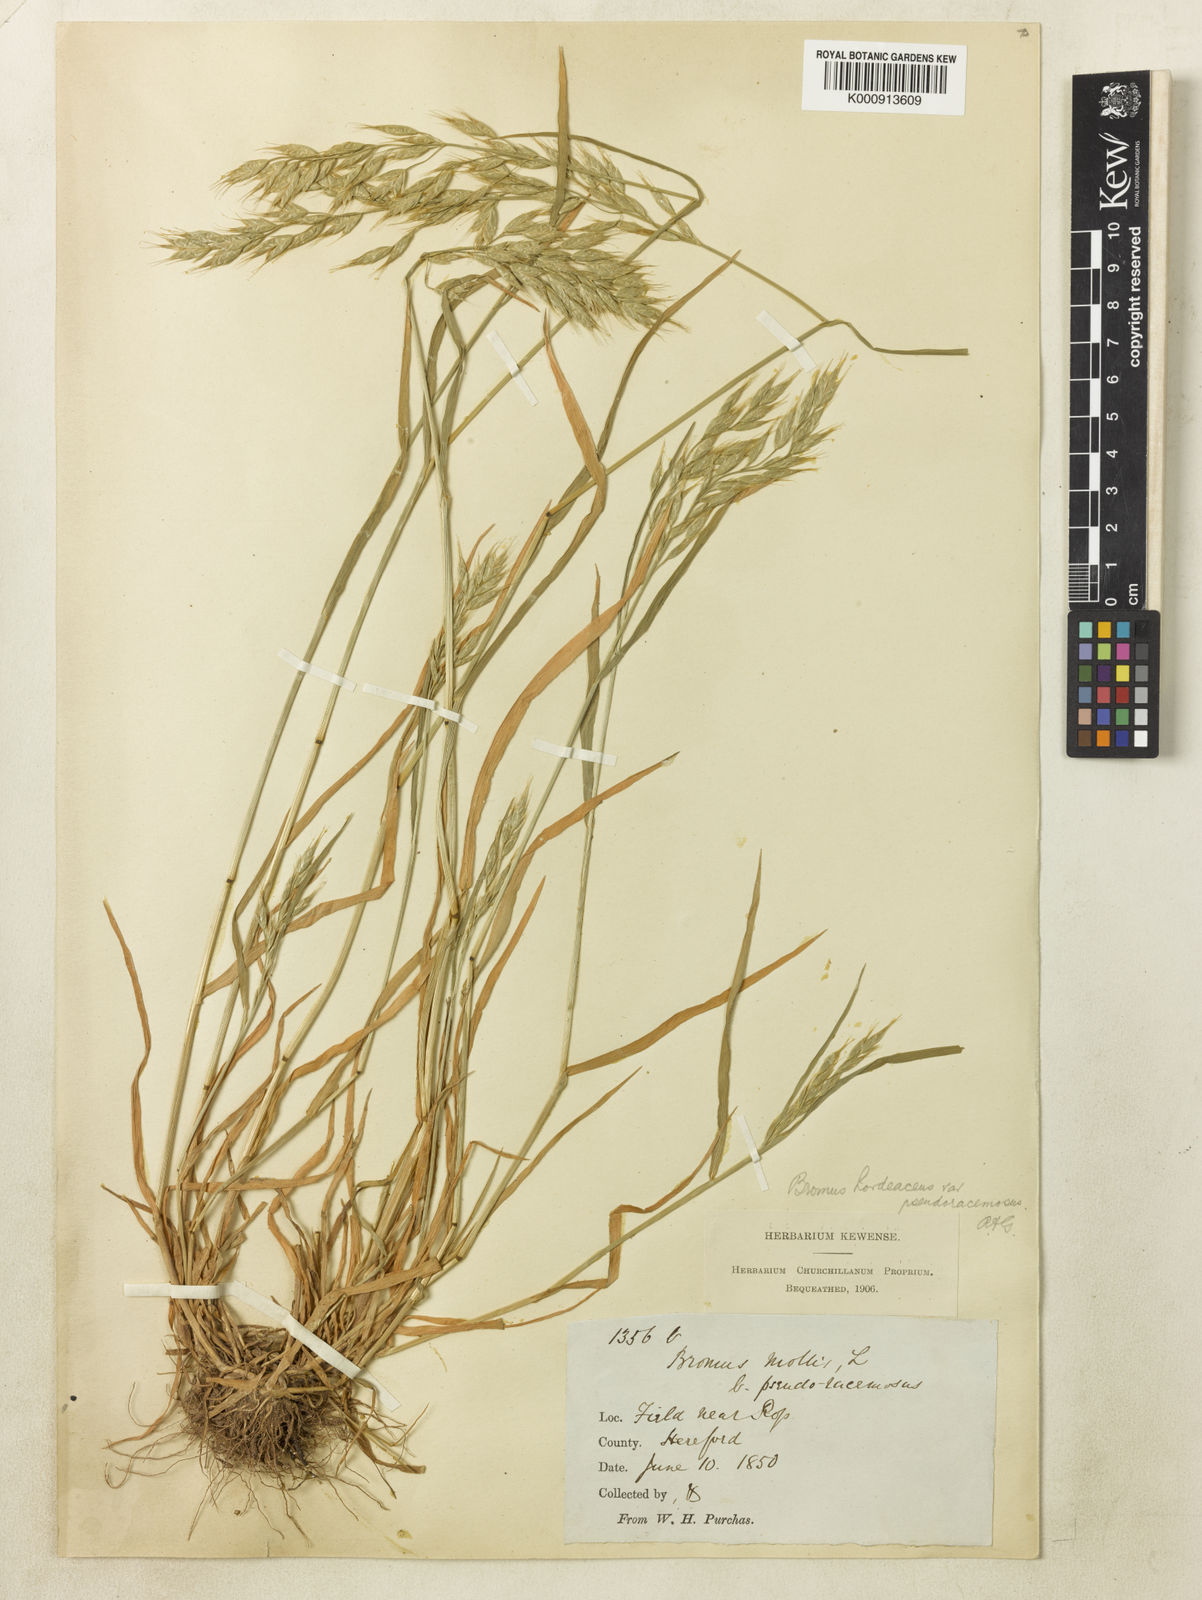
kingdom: Plantae
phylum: Tracheophyta
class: Liliopsida
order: Poales
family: Poaceae
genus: Bromus
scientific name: Bromus hordeaceus
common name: Soft brome
